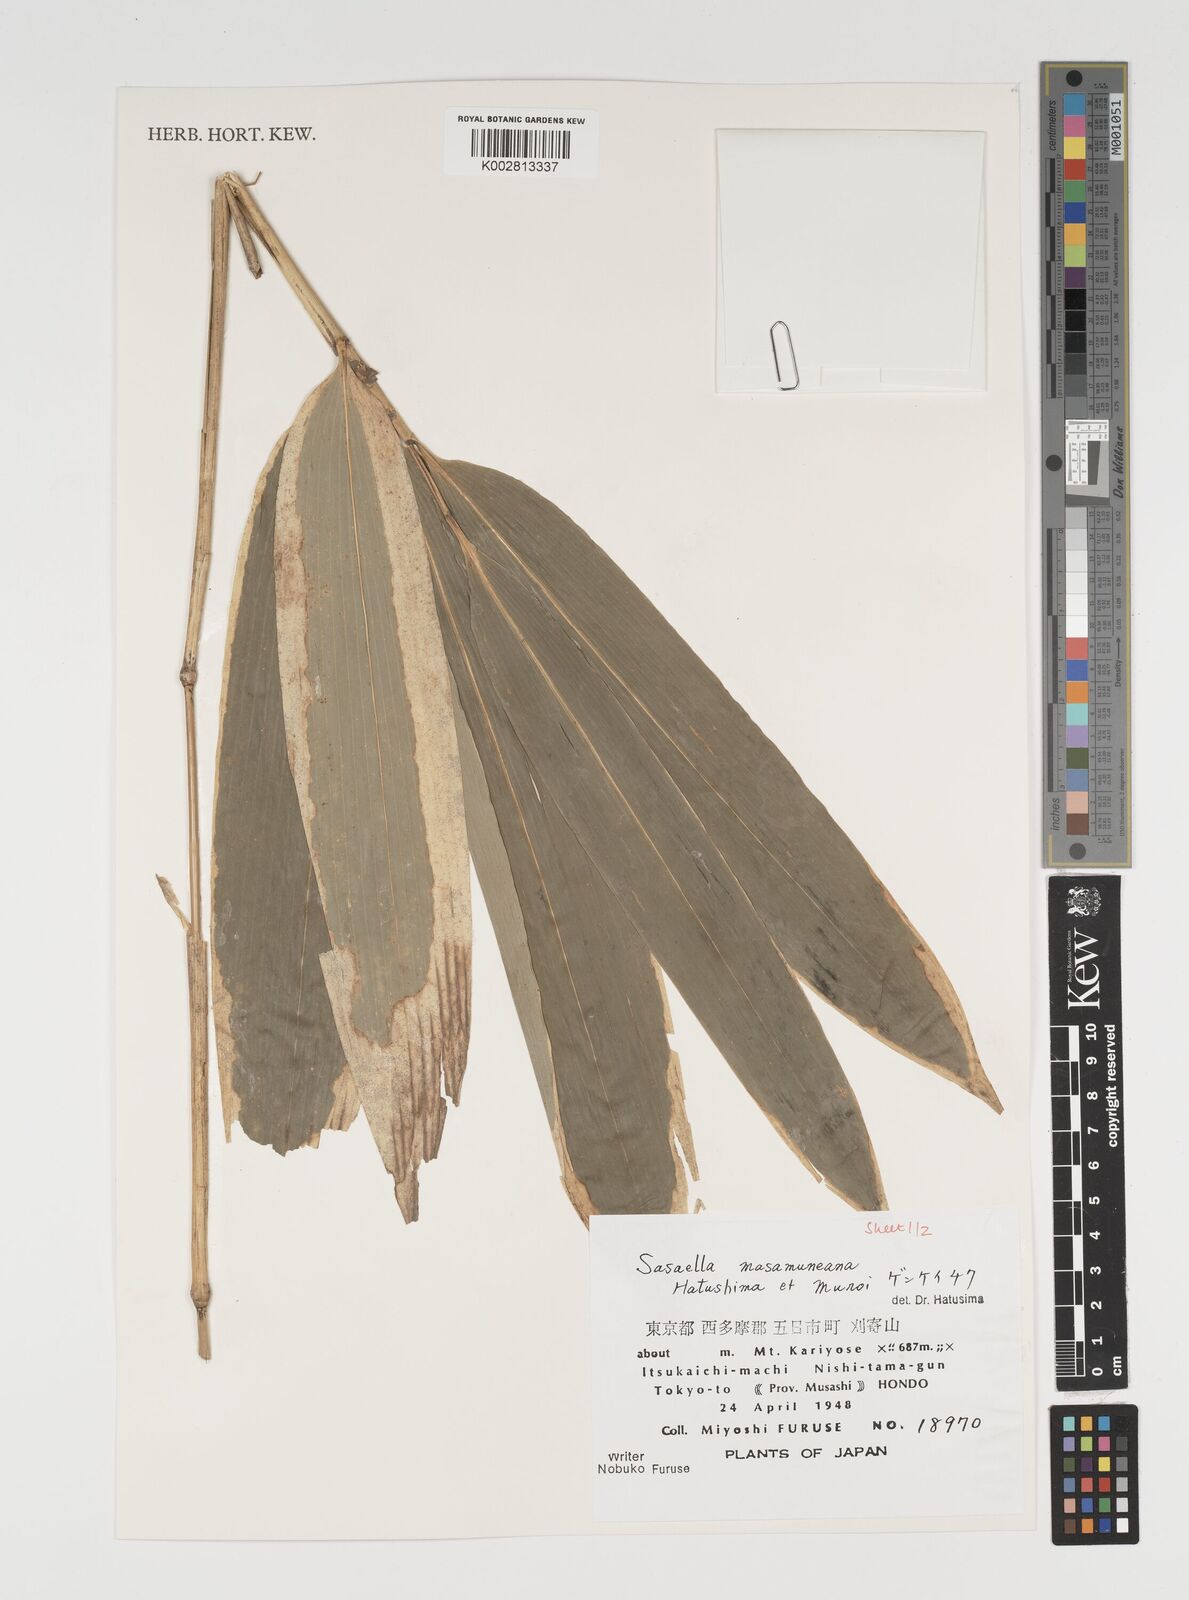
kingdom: Plantae
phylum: Tracheophyta
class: Liliopsida
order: Poales
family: Poaceae
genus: Sasaella
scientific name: Sasaella masamuneana
